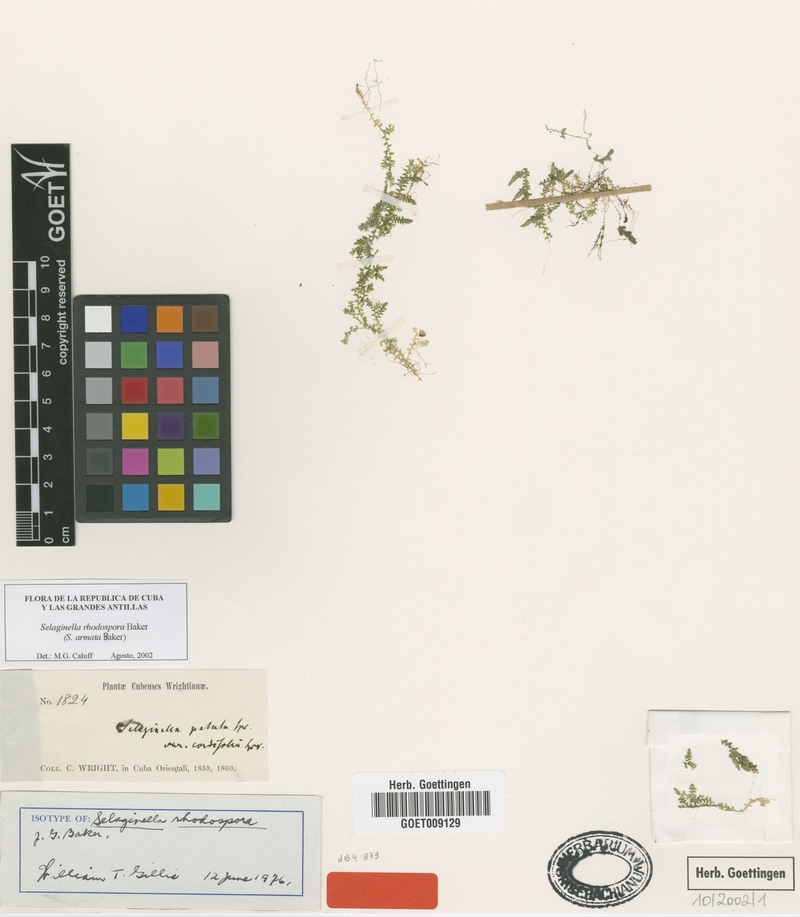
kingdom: Plantae
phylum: Tracheophyta
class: Lycopodiopsida
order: Selaginellales
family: Selaginellaceae
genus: Selaginella
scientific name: Selaginella armata
